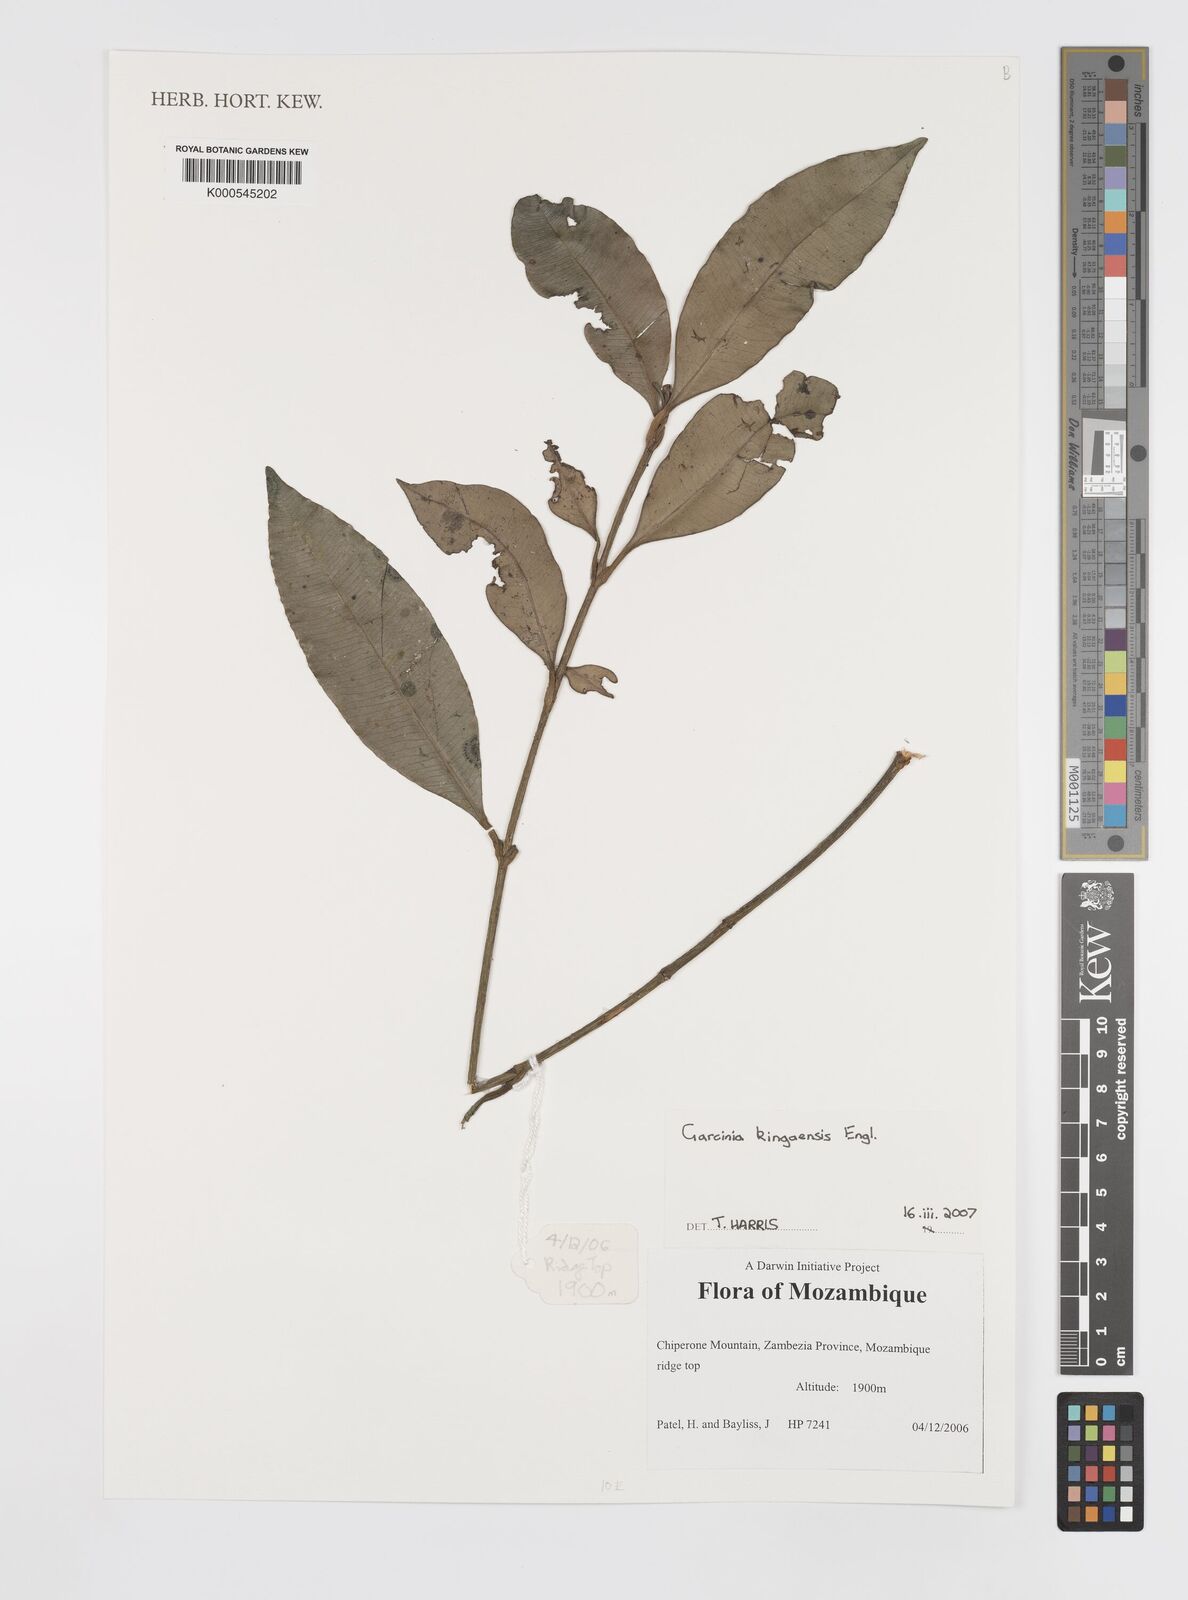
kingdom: Plantae
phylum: Tracheophyta
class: Magnoliopsida
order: Malpighiales
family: Clusiaceae
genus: Garcinia
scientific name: Garcinia kingaensis
